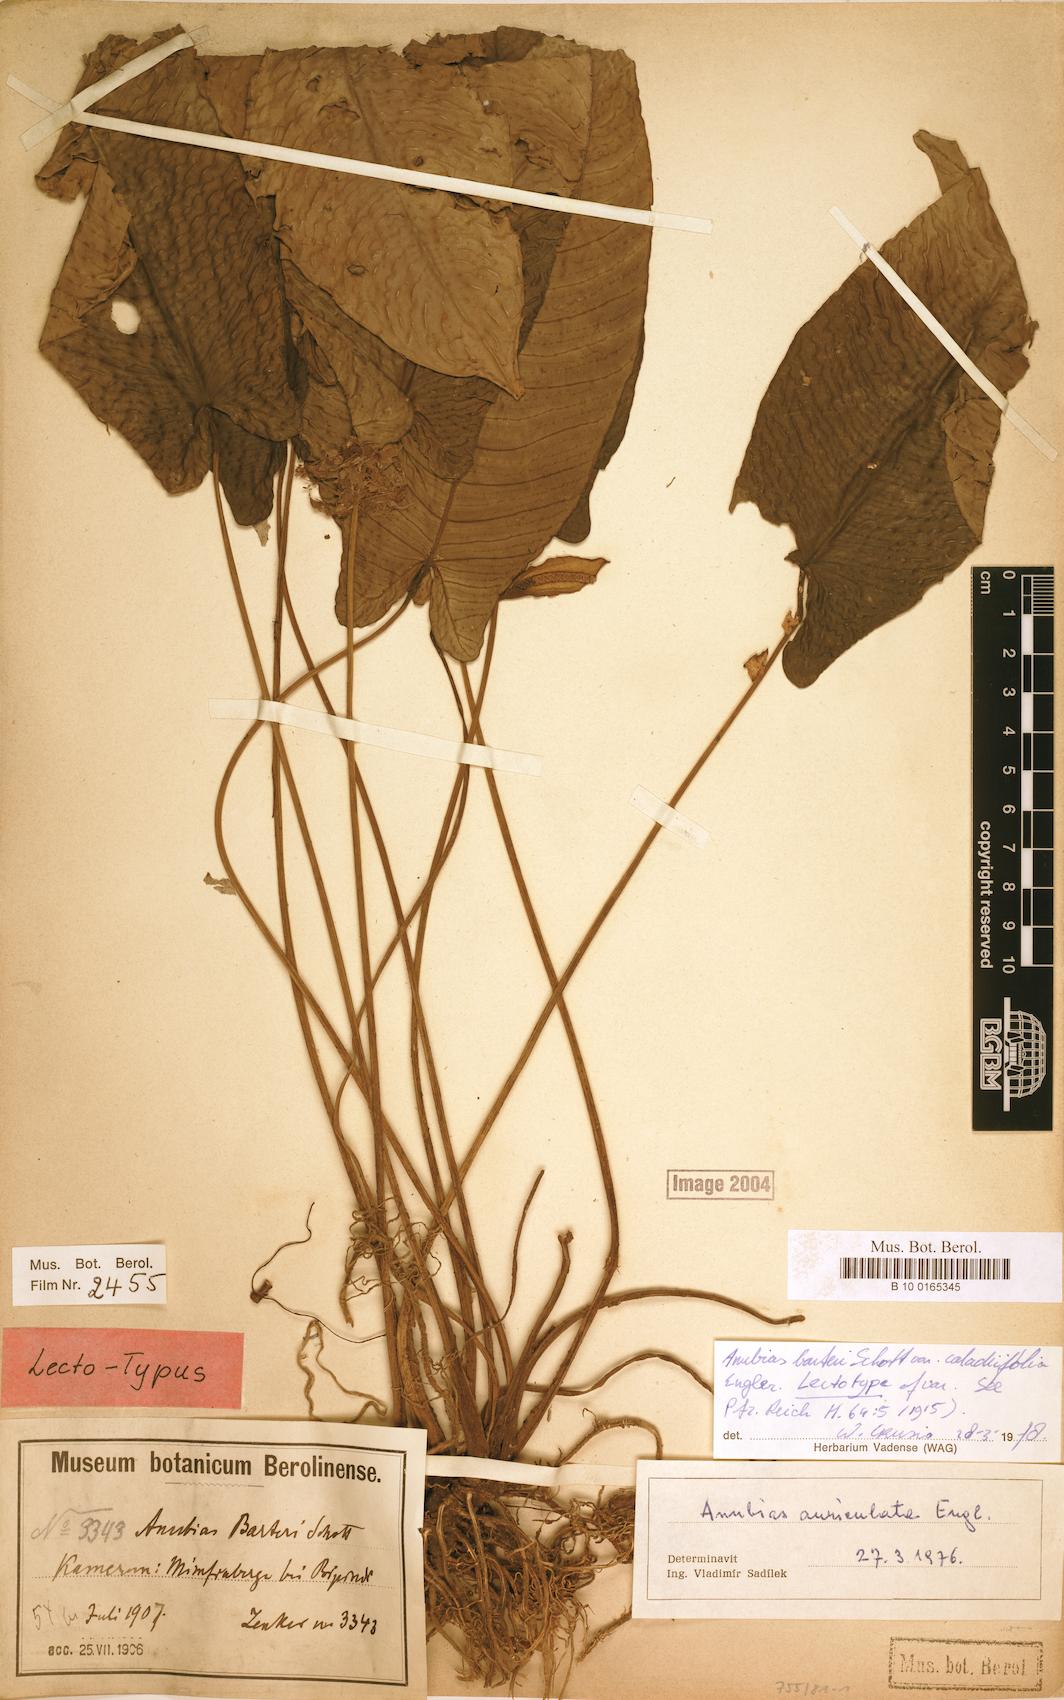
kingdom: Plantae
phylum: Tracheophyta
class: Liliopsida
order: Alismatales
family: Araceae
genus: Anubias
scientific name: Anubias barteri
